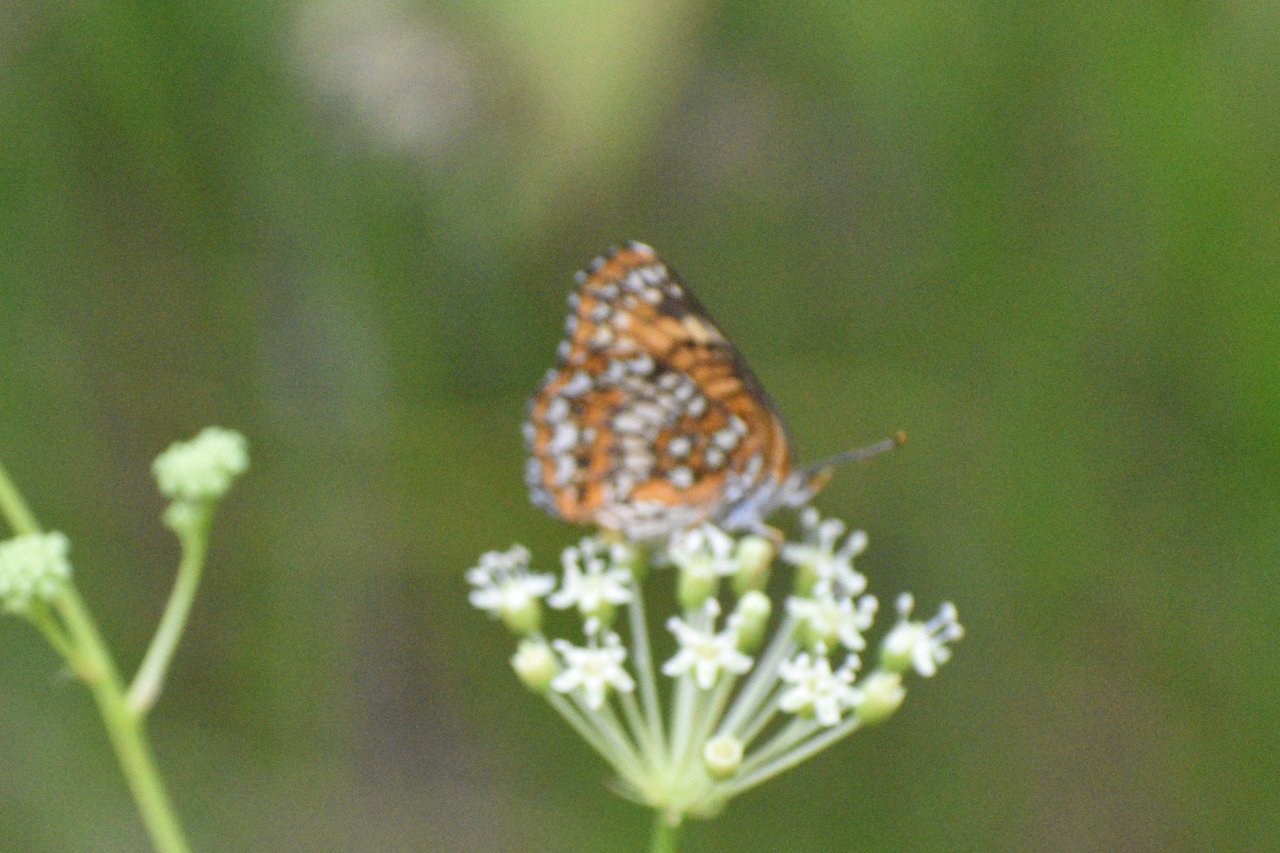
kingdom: Animalia
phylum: Arthropoda
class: Insecta
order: Lepidoptera
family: Nymphalidae
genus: Chlosyne
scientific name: Chlosyne harrisii
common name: Harris's Checkerspot
